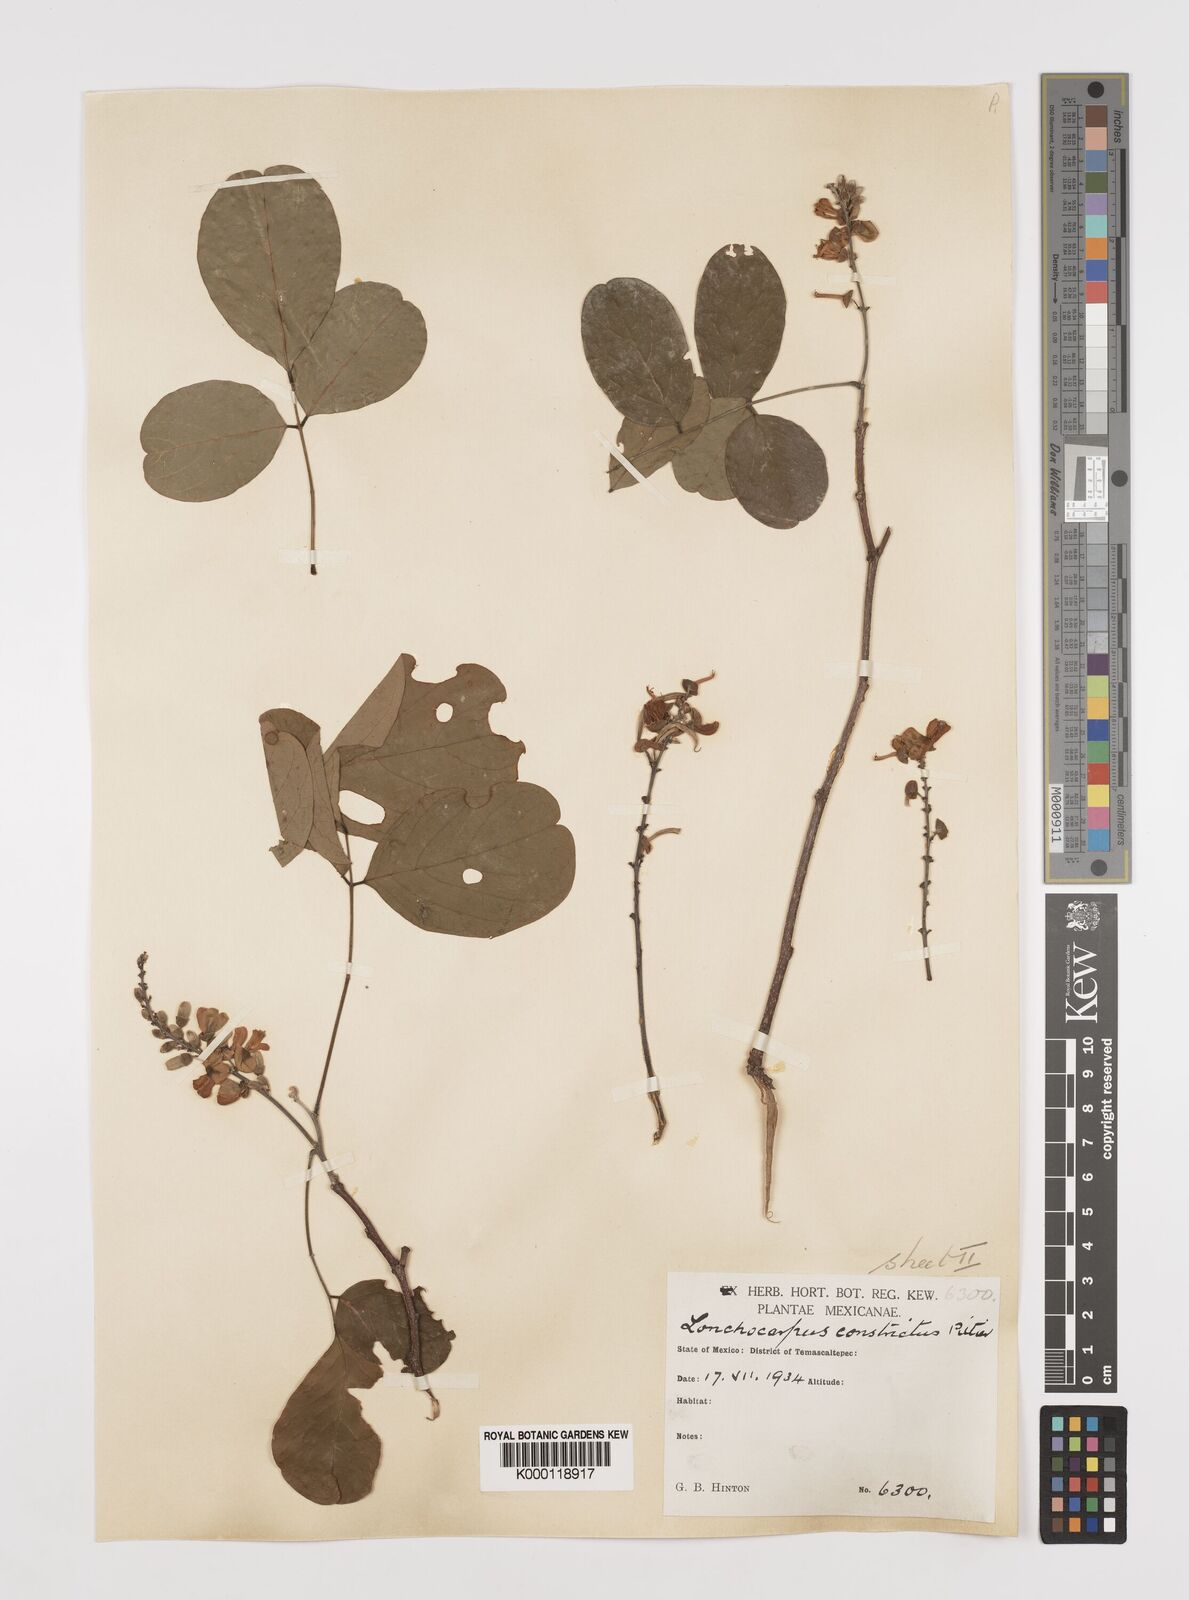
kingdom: Plantae
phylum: Tracheophyta
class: Magnoliopsida
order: Fabales
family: Fabaceae
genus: Lonchocarpus
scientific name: Lonchocarpus constrictus
